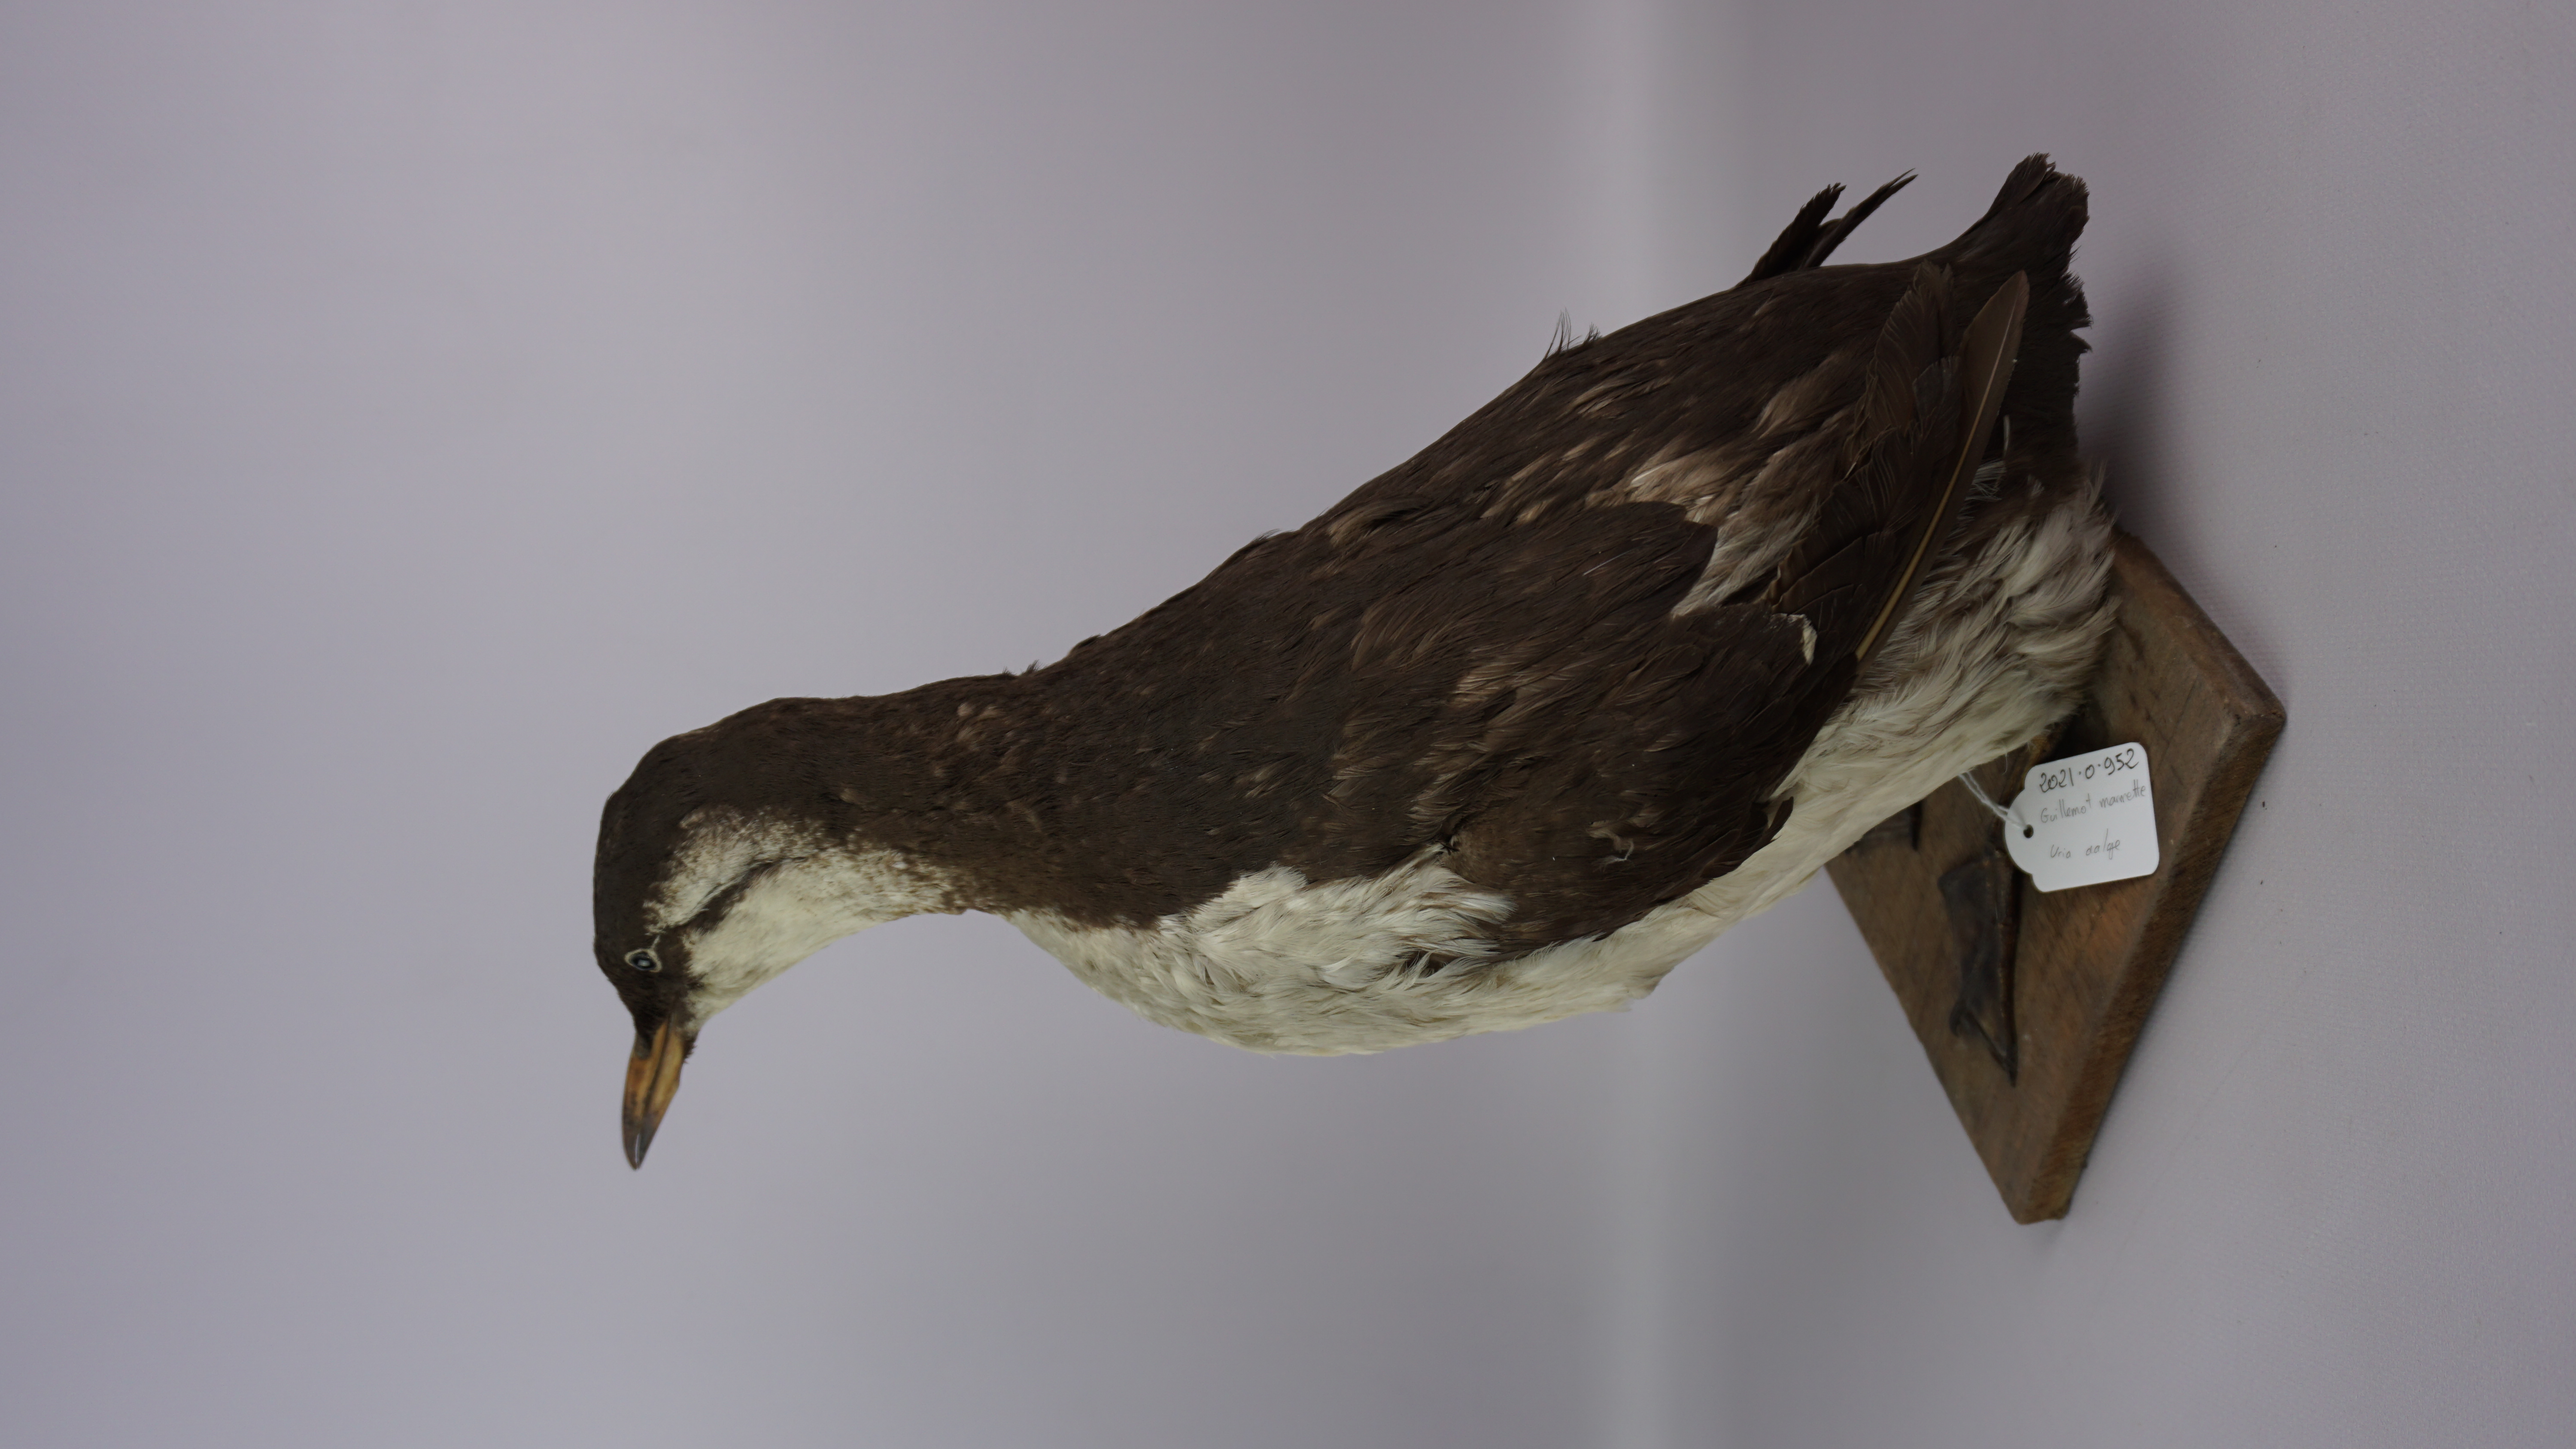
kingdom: Animalia
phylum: Chordata
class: Aves
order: Charadriiformes
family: Alcidae
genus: Uria
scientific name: Uria aalge
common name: Common murre
